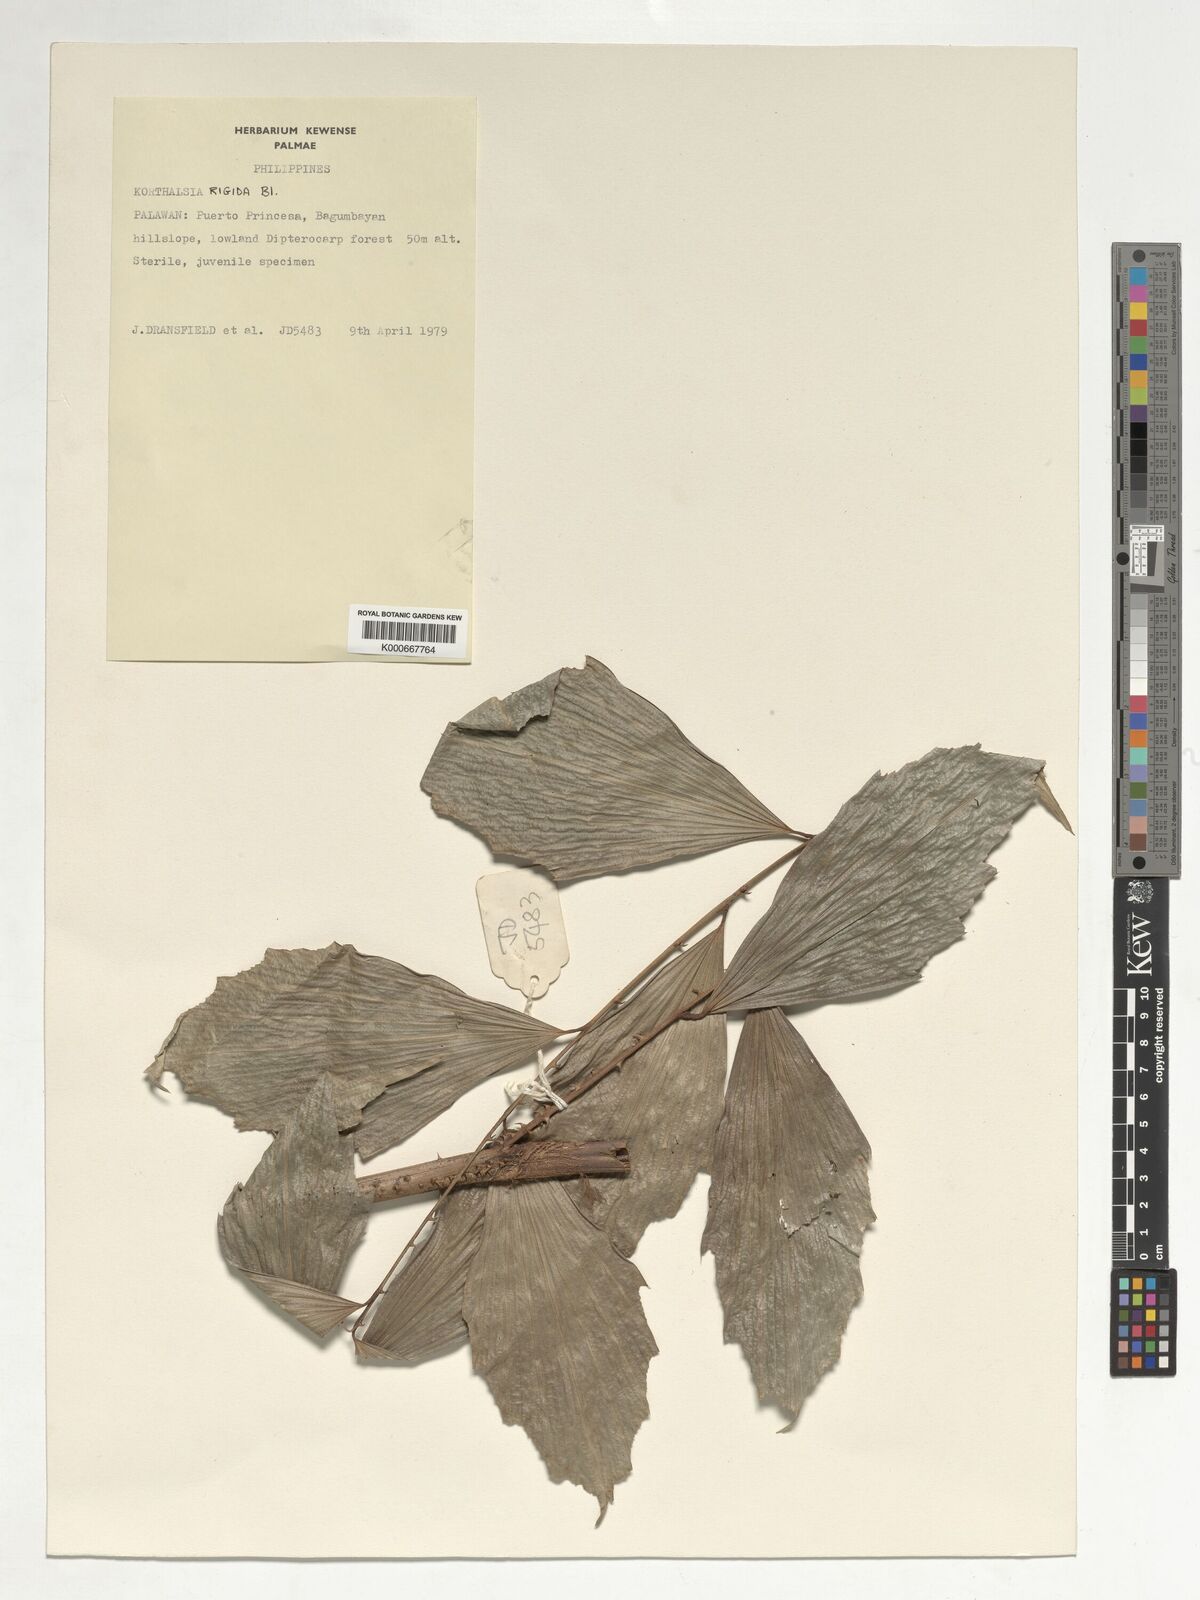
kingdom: Plantae
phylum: Tracheophyta
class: Liliopsida
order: Arecales
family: Arecaceae
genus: Korthalsia
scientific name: Korthalsia rigida
